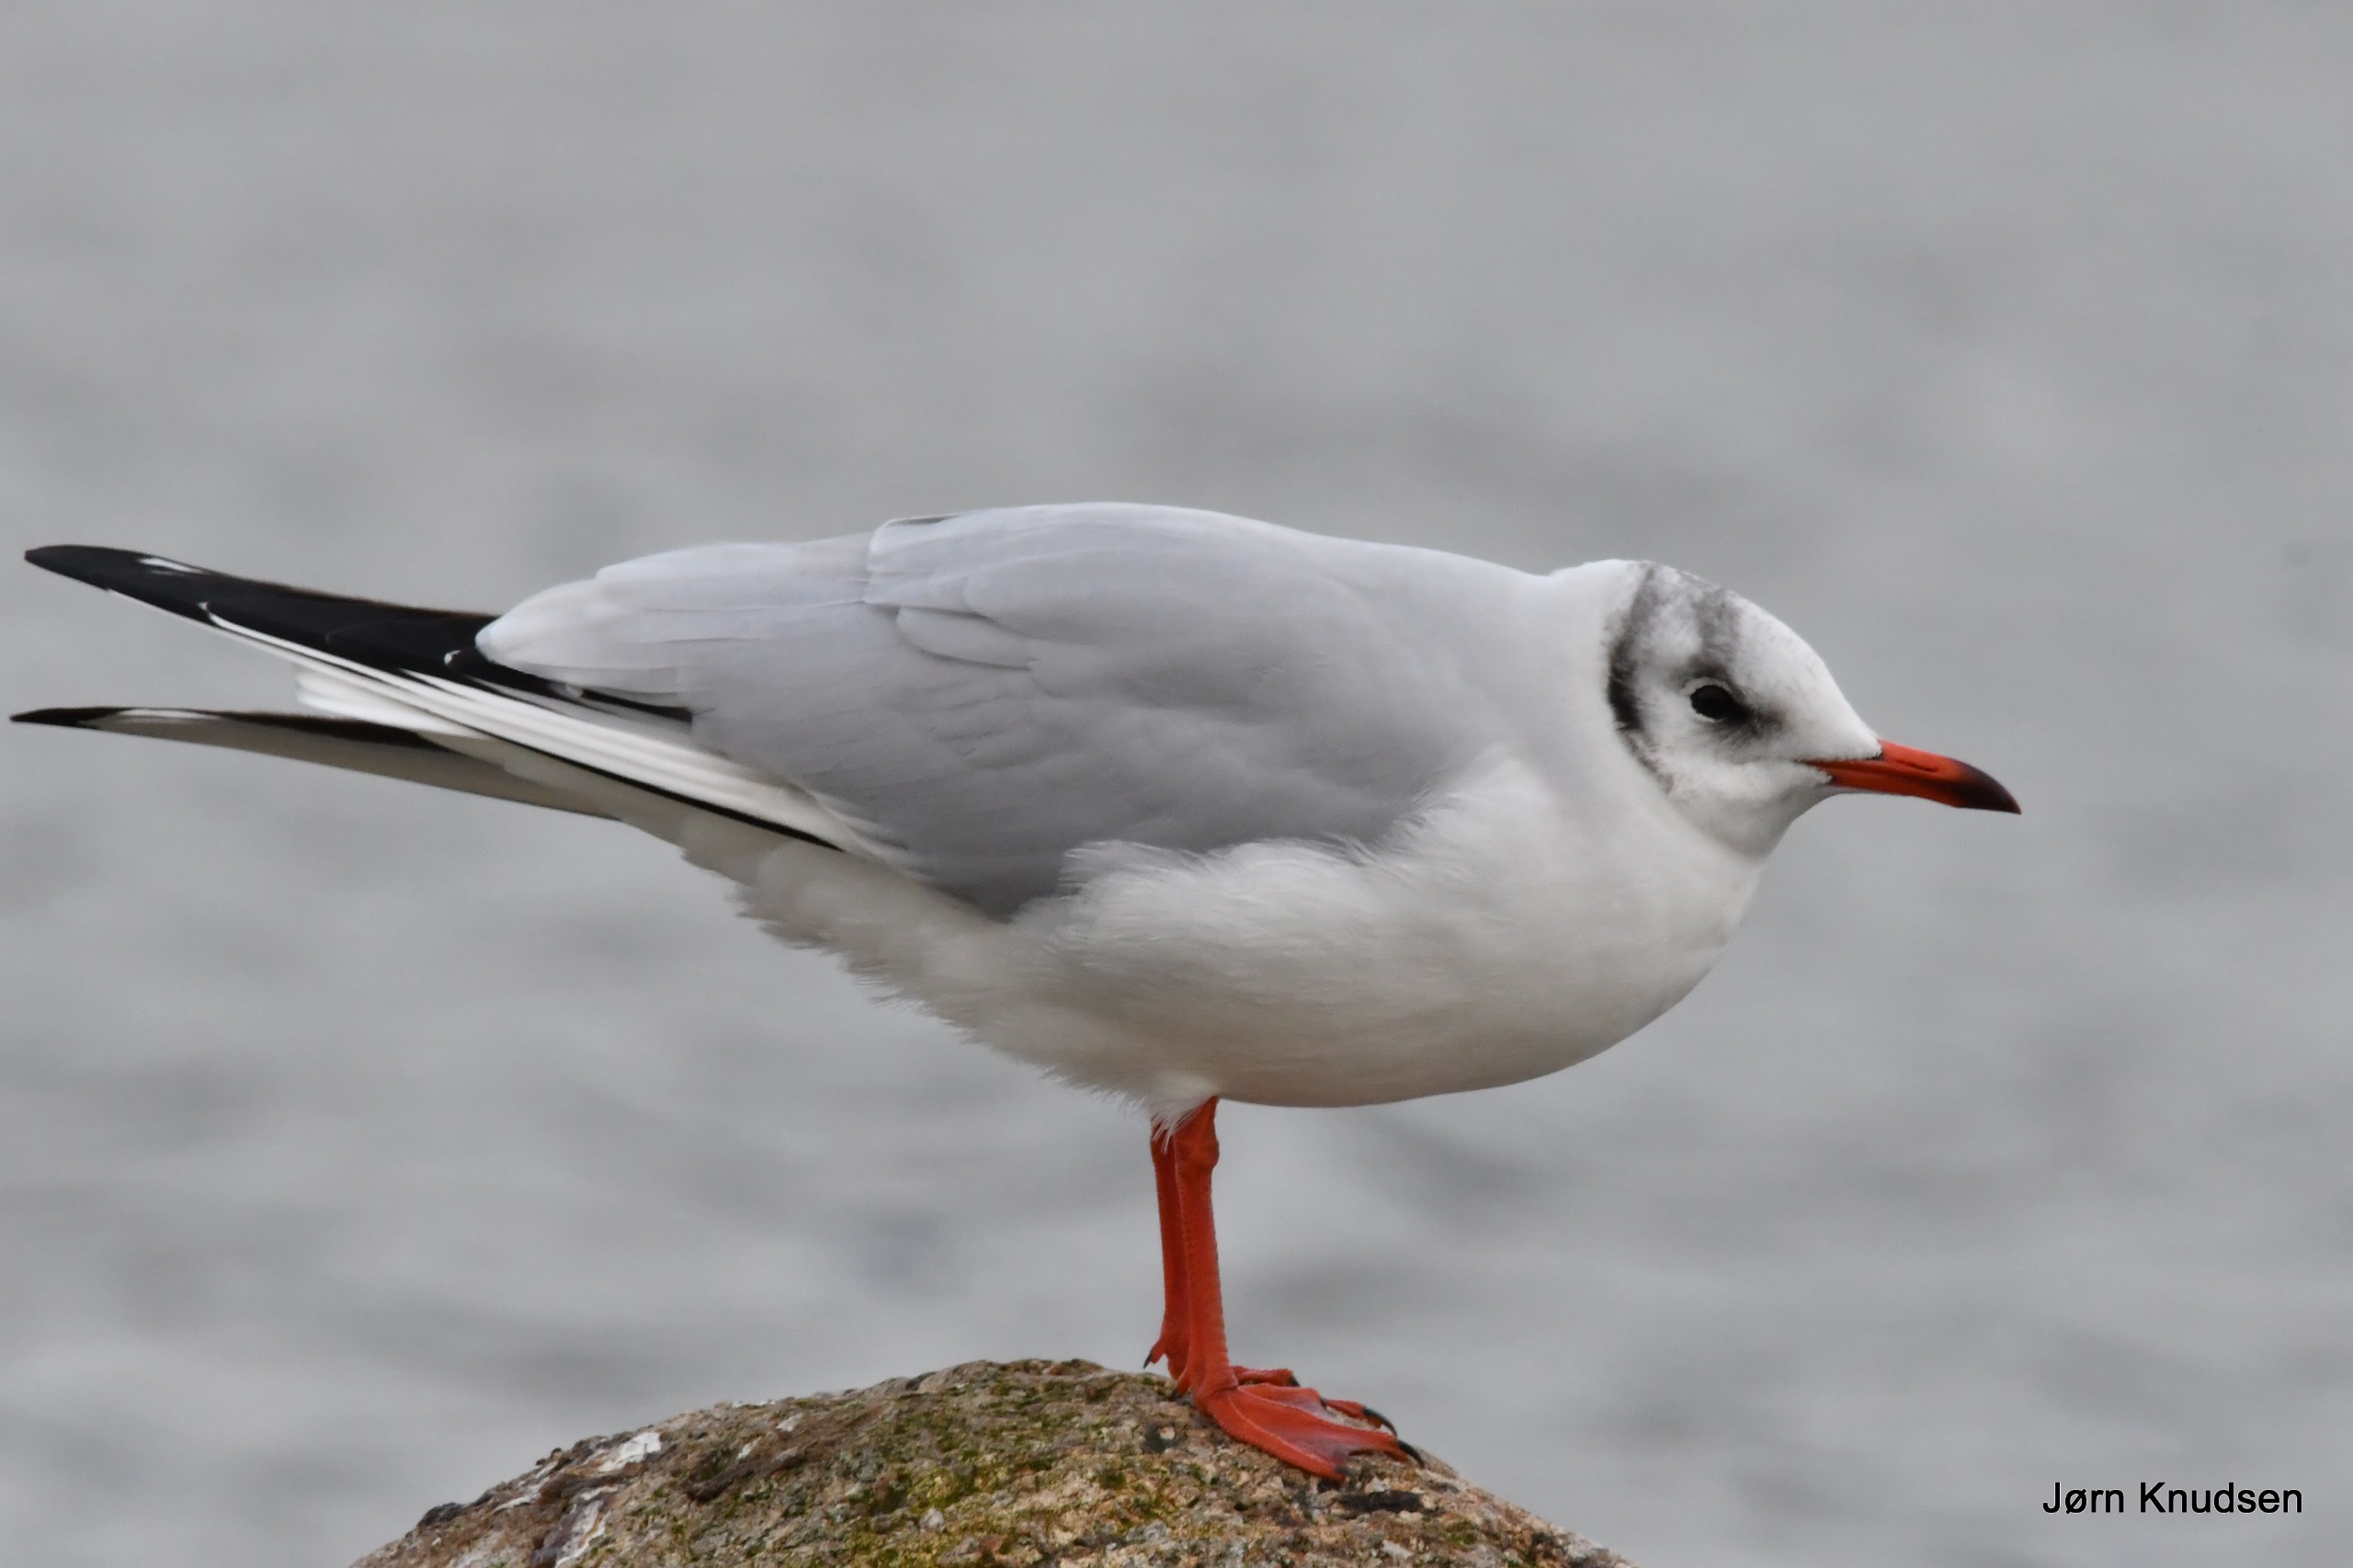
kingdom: Animalia
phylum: Chordata
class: Aves
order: Charadriiformes
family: Laridae
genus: Chroicocephalus
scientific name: Chroicocephalus ridibundus
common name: Hættemåge
